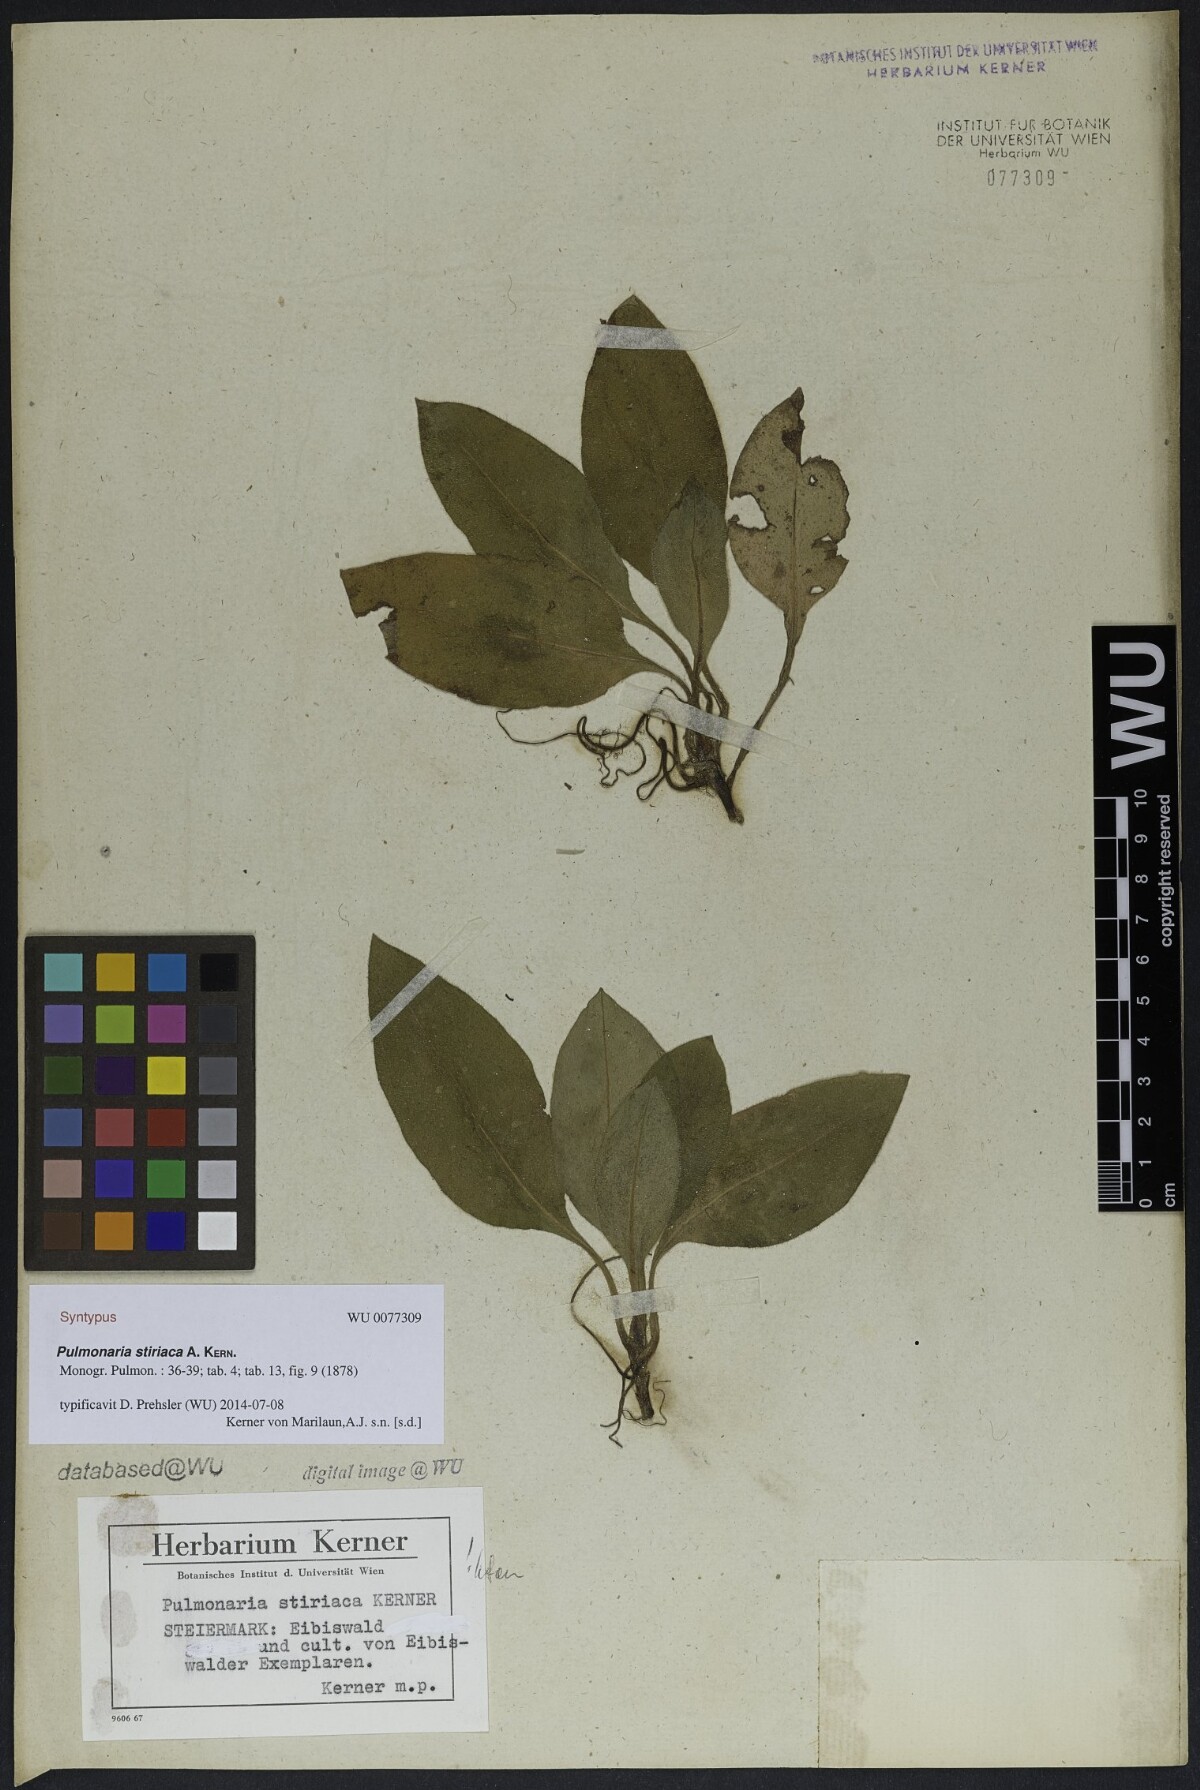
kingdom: Plantae
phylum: Tracheophyta
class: Magnoliopsida
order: Boraginales
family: Boraginaceae
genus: Pulmonaria
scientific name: Pulmonaria stiriaca
